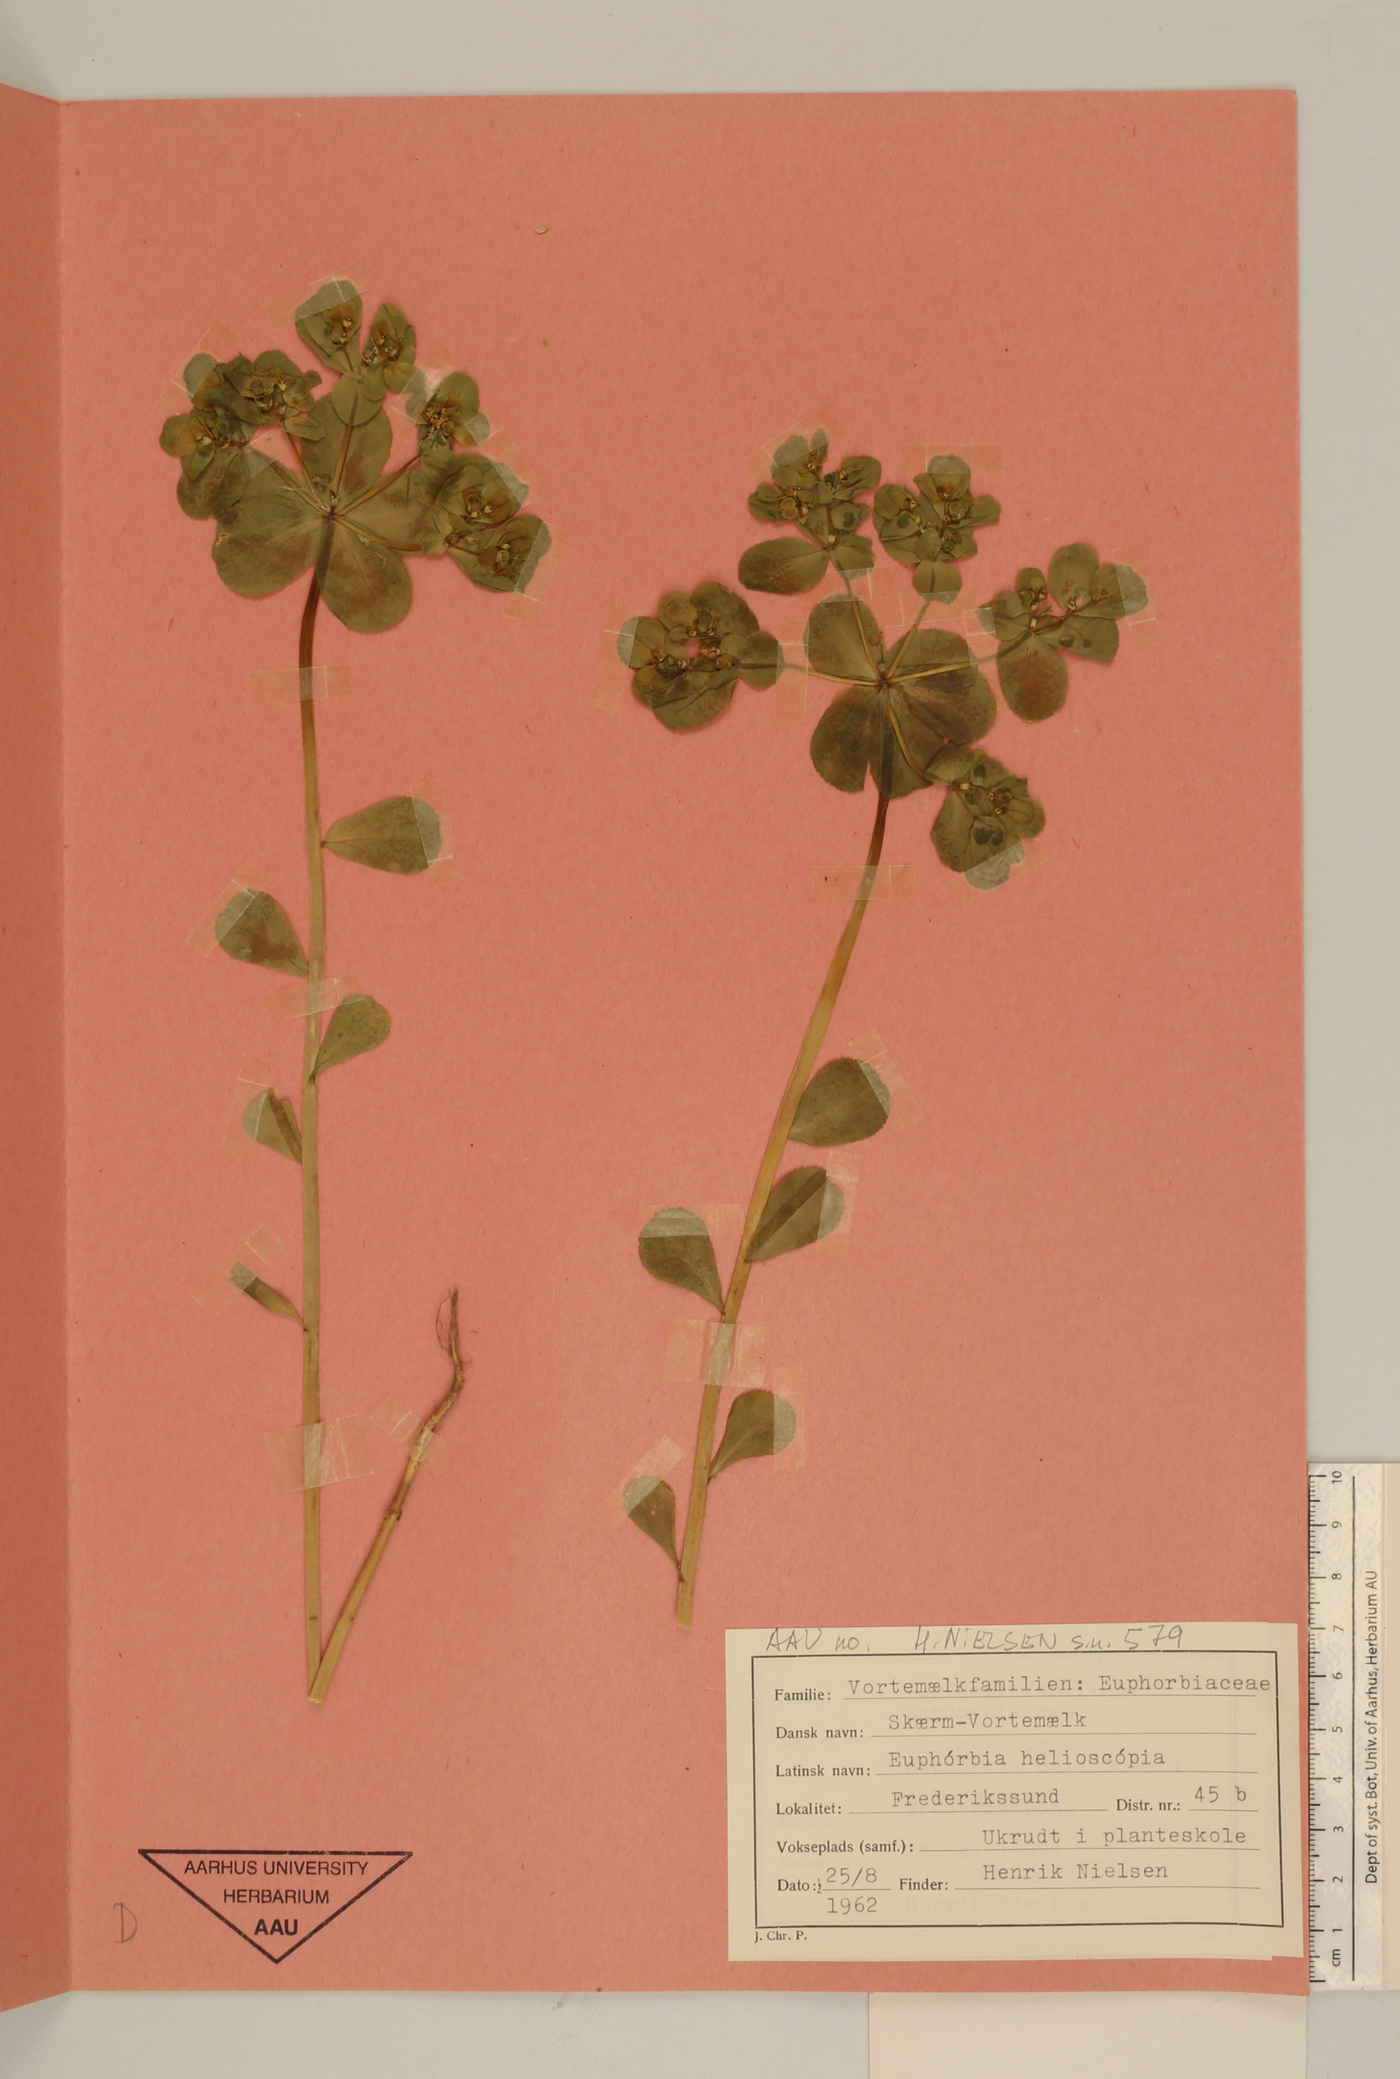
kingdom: Plantae
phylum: Tracheophyta
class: Magnoliopsida
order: Malpighiales
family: Euphorbiaceae
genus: Euphorbia
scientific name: Euphorbia helioscopia
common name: Sun spurge
